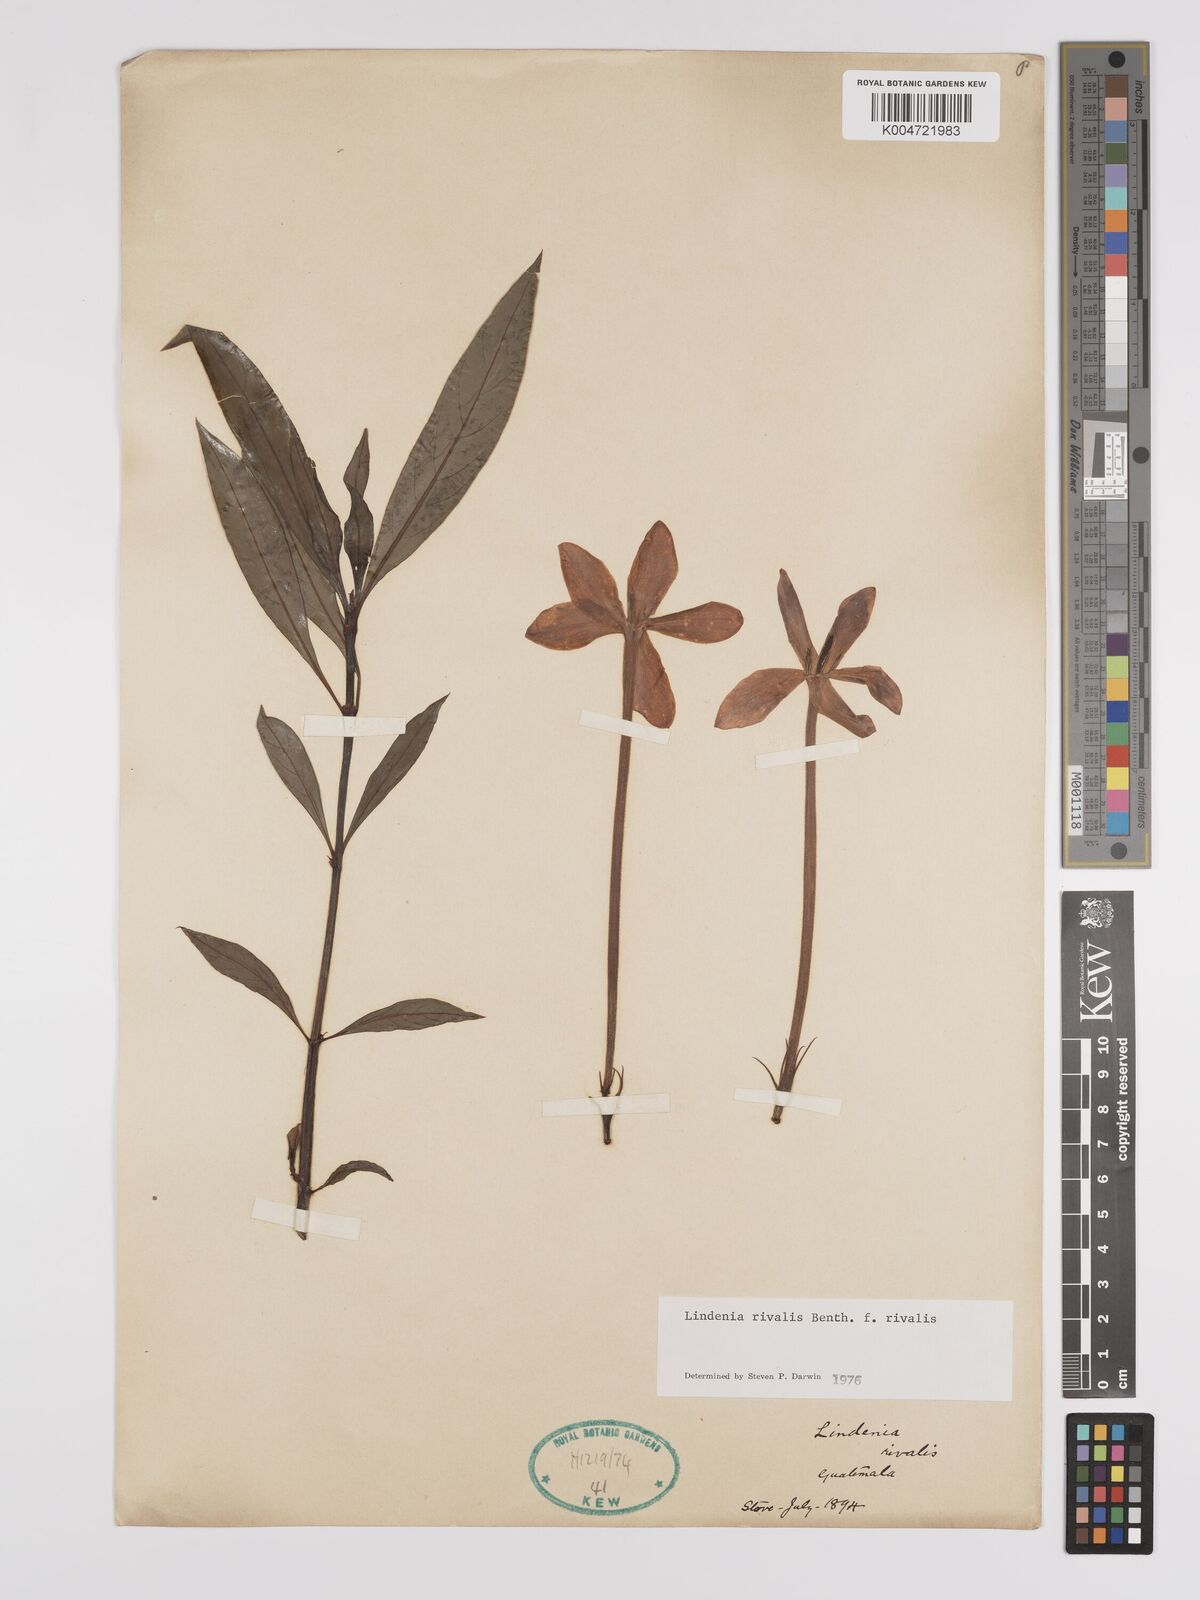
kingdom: Plantae
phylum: Tracheophyta
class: Magnoliopsida
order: Gentianales
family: Rubiaceae
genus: Augusta
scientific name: Augusta rivalis
